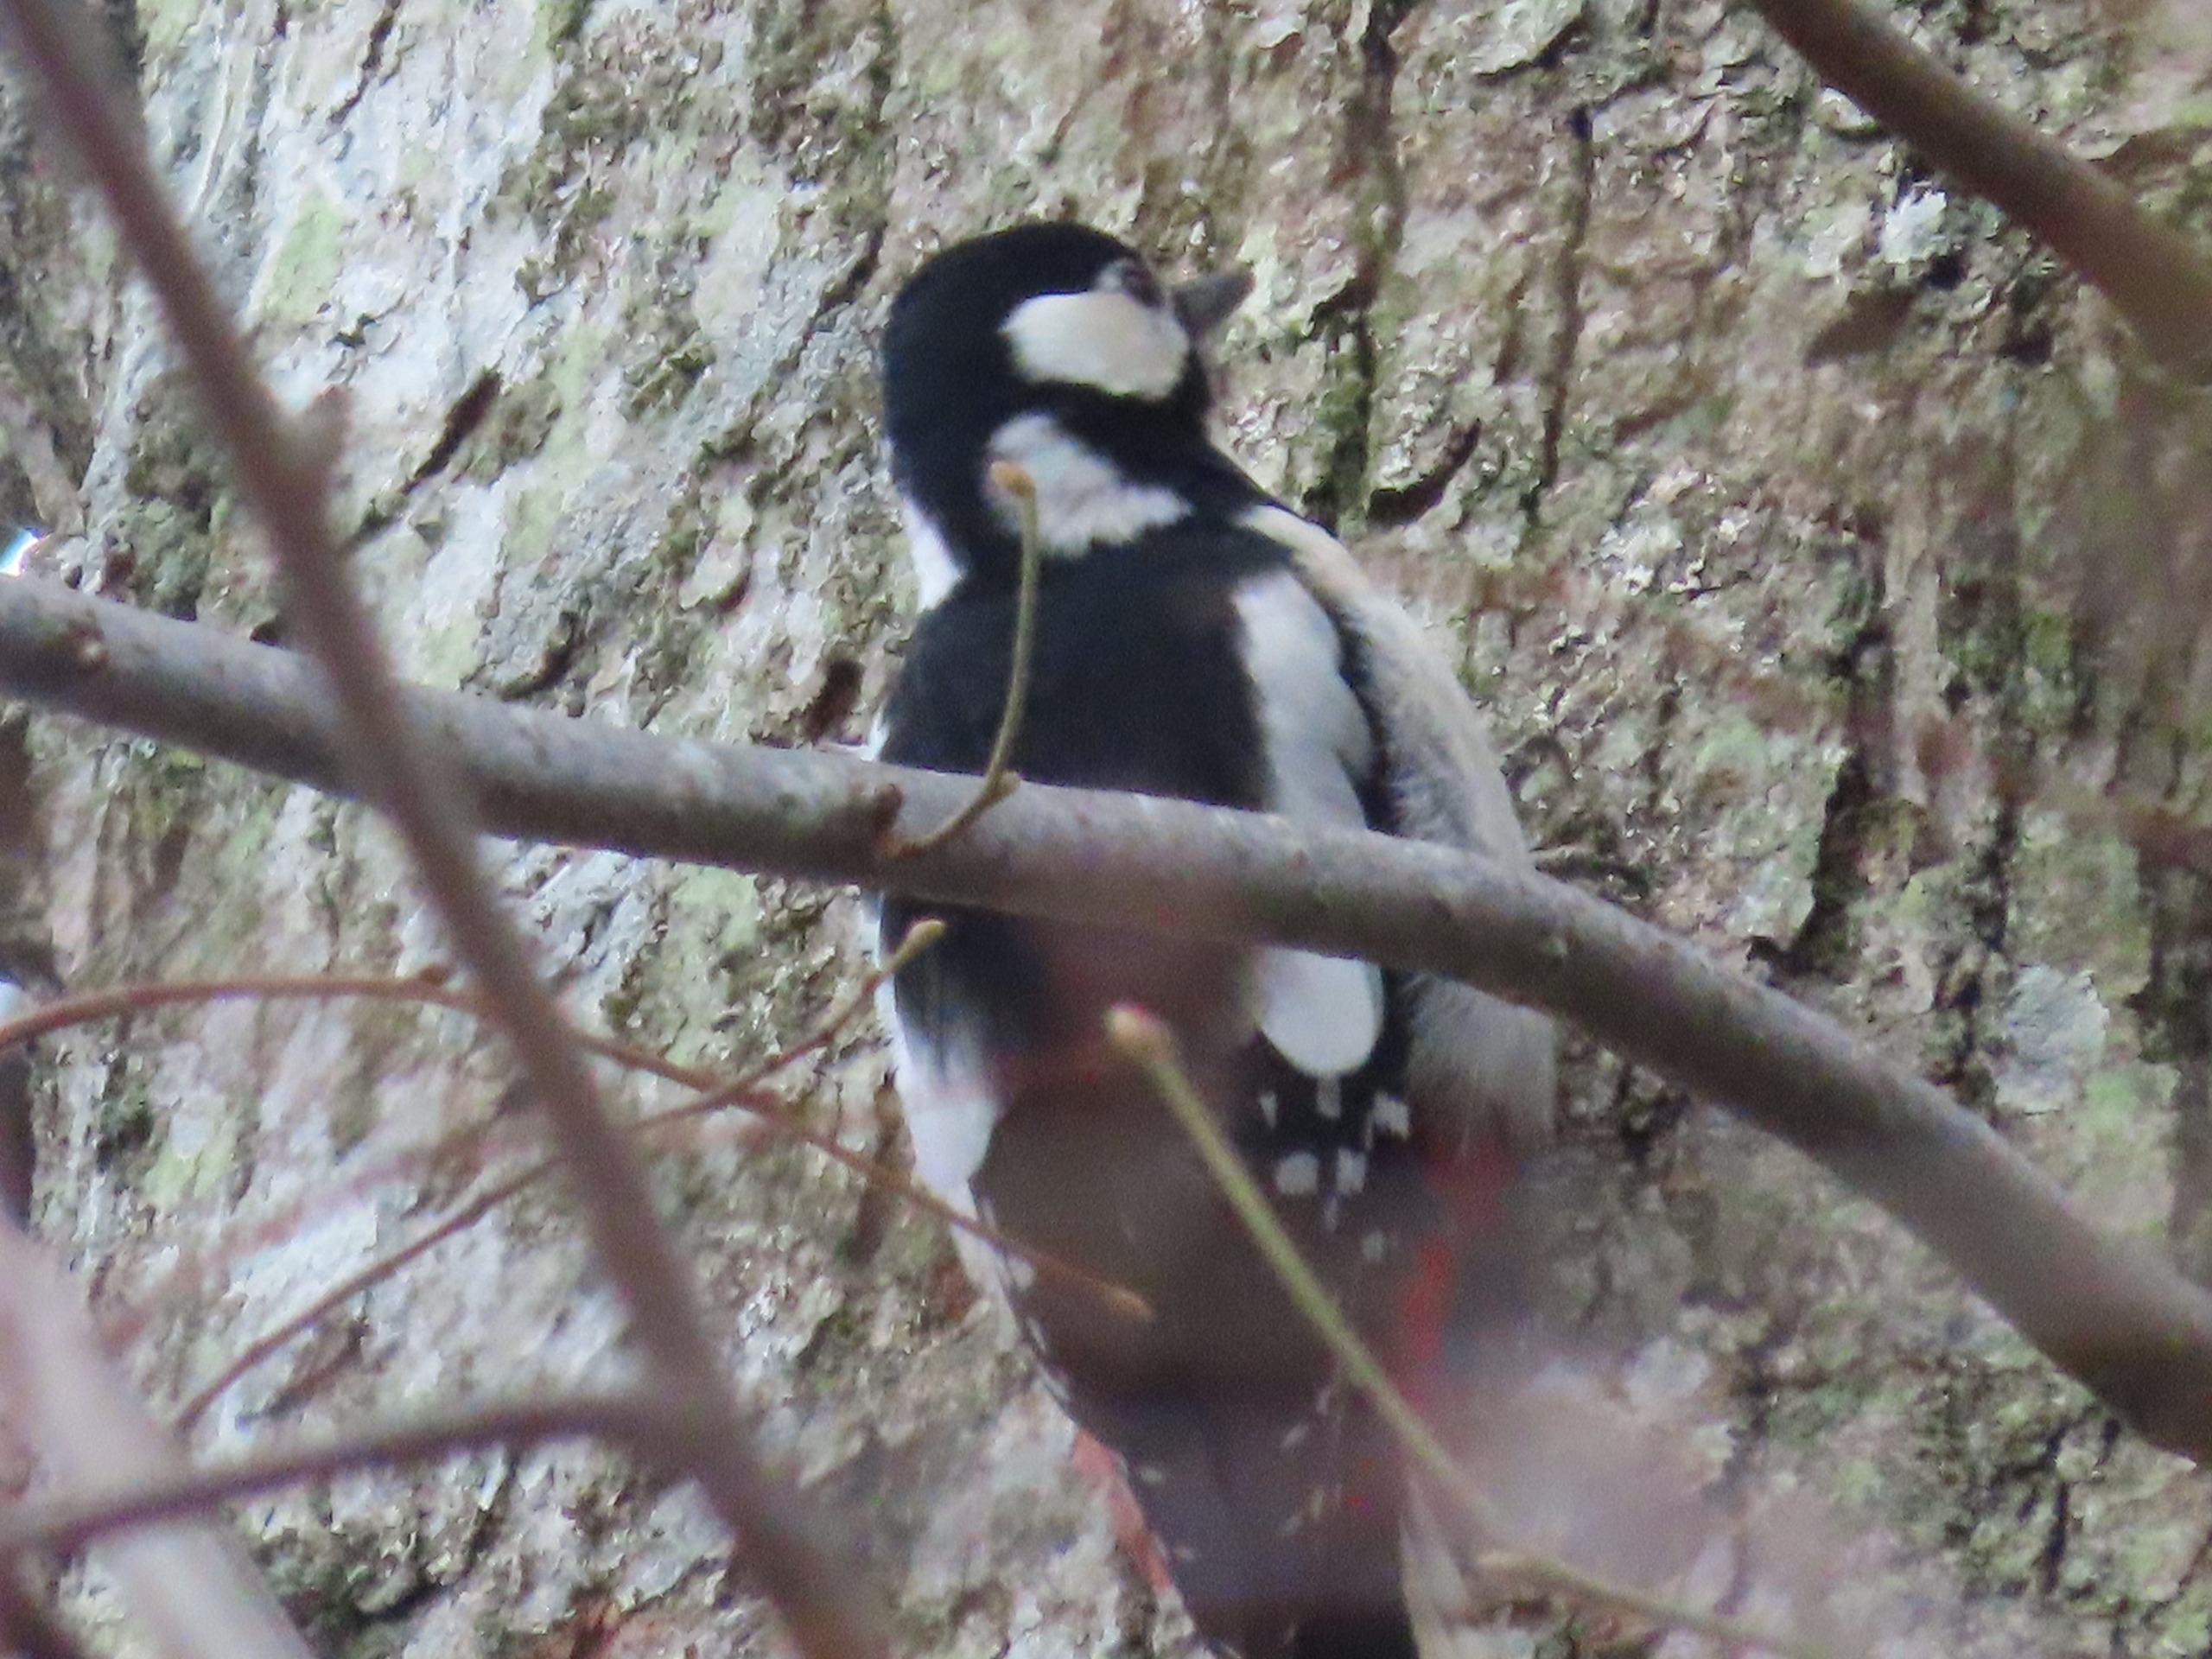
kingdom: Animalia
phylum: Chordata
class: Aves
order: Piciformes
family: Picidae
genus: Dendrocopos
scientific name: Dendrocopos major
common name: Stor flagspætte
